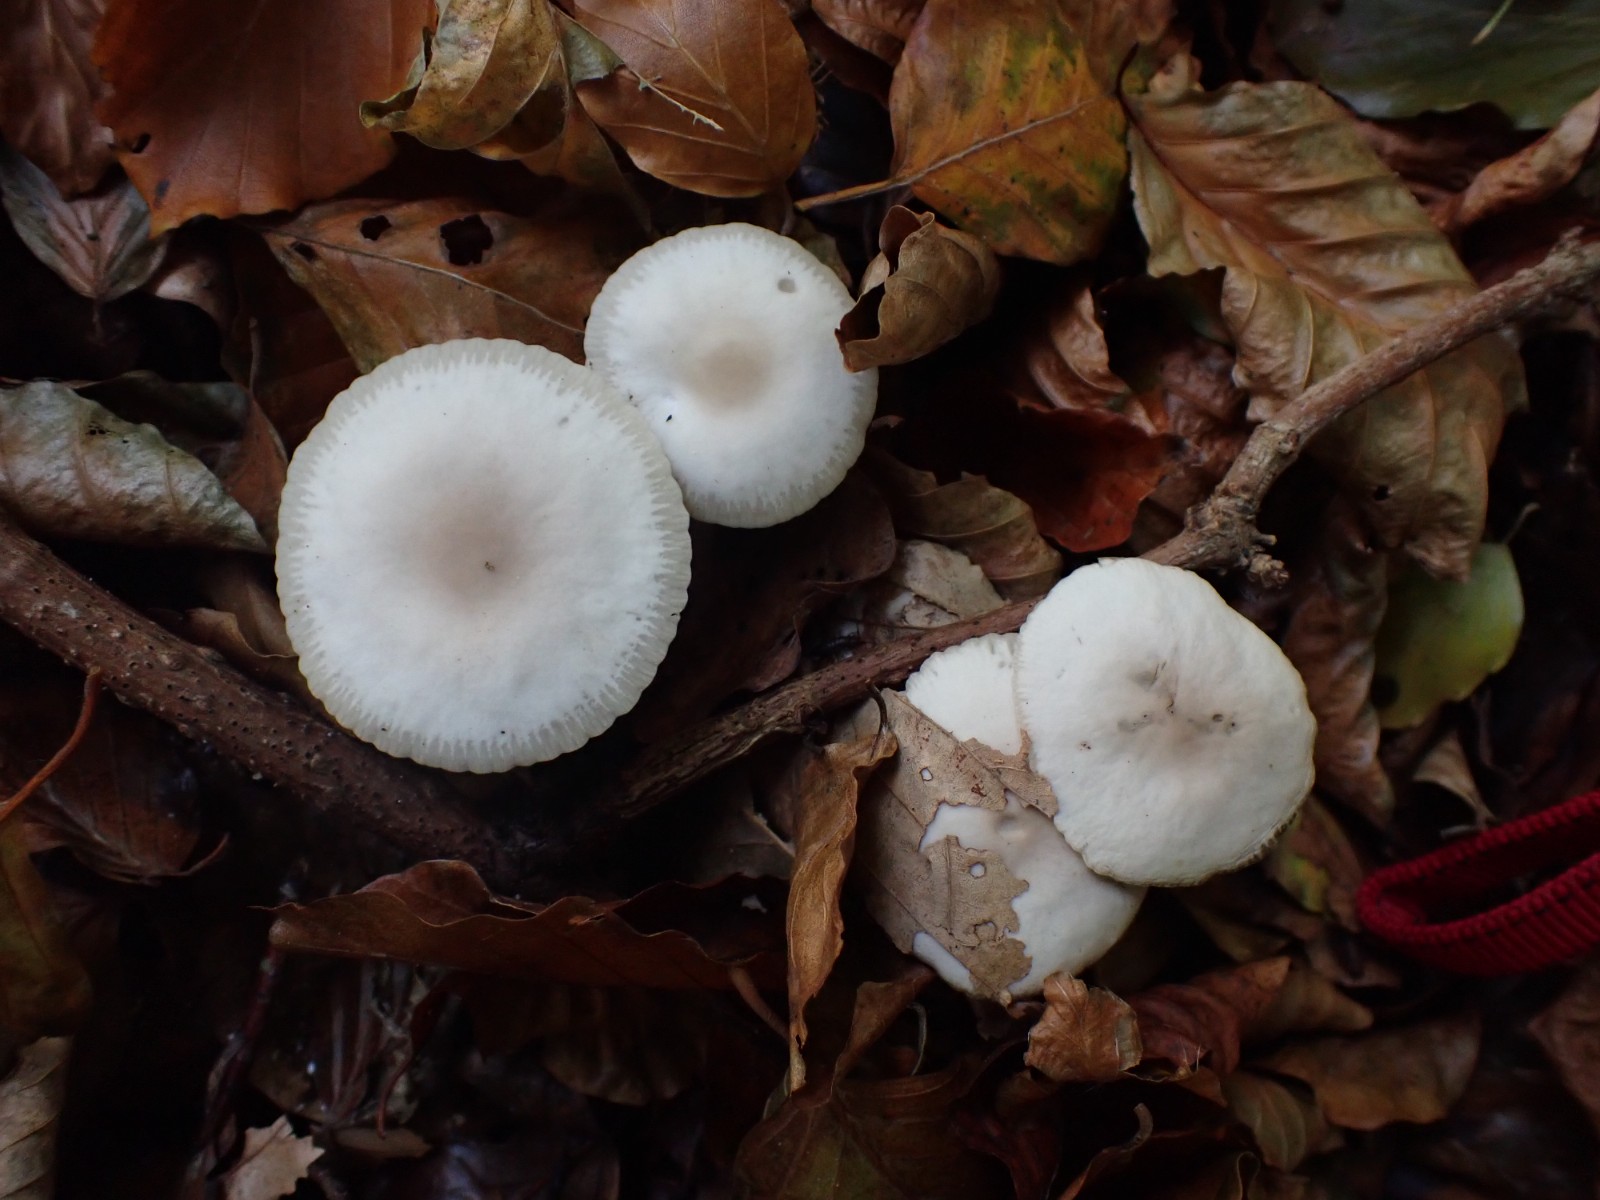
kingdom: Fungi
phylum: Basidiomycota
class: Agaricomycetes
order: Agaricales
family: Marasmiaceae
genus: Marasmius
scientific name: Marasmius wynneae
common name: hvælvet bruskhat
